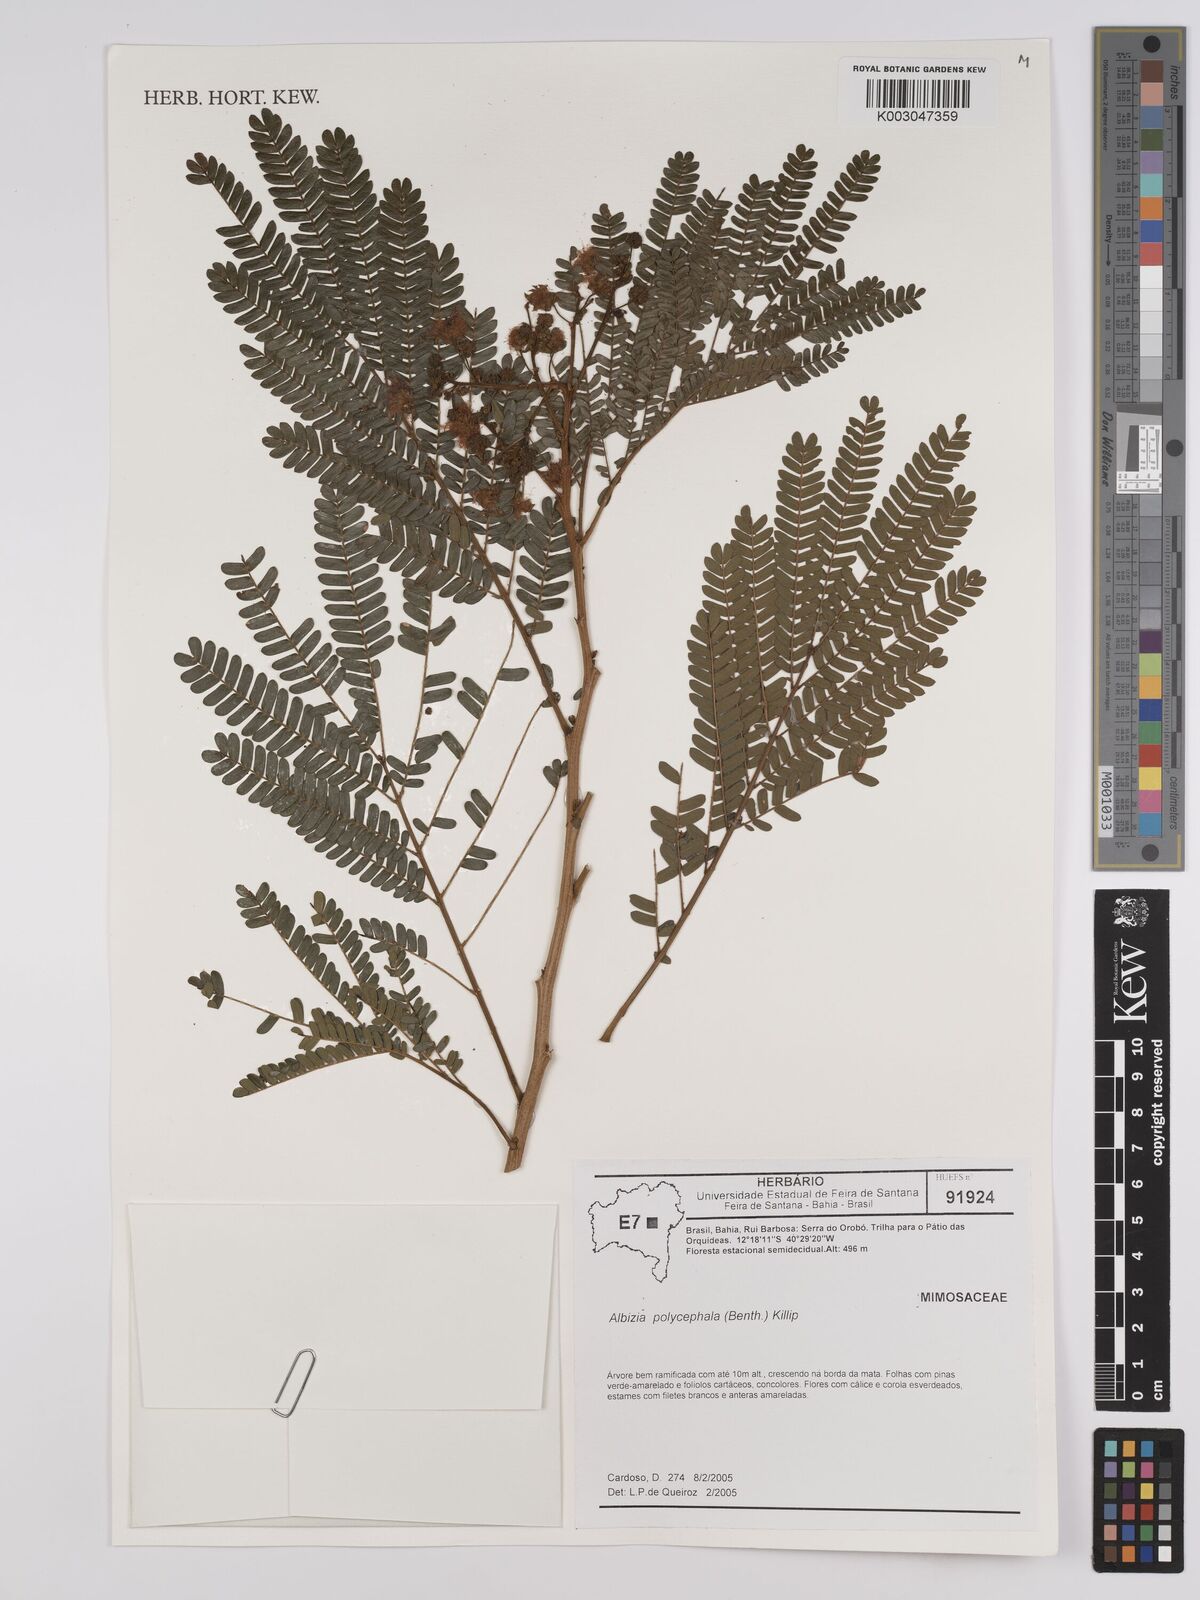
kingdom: Plantae
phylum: Tracheophyta
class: Magnoliopsida
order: Fabales
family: Fabaceae
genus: Albizia
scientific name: Albizia polycephala
